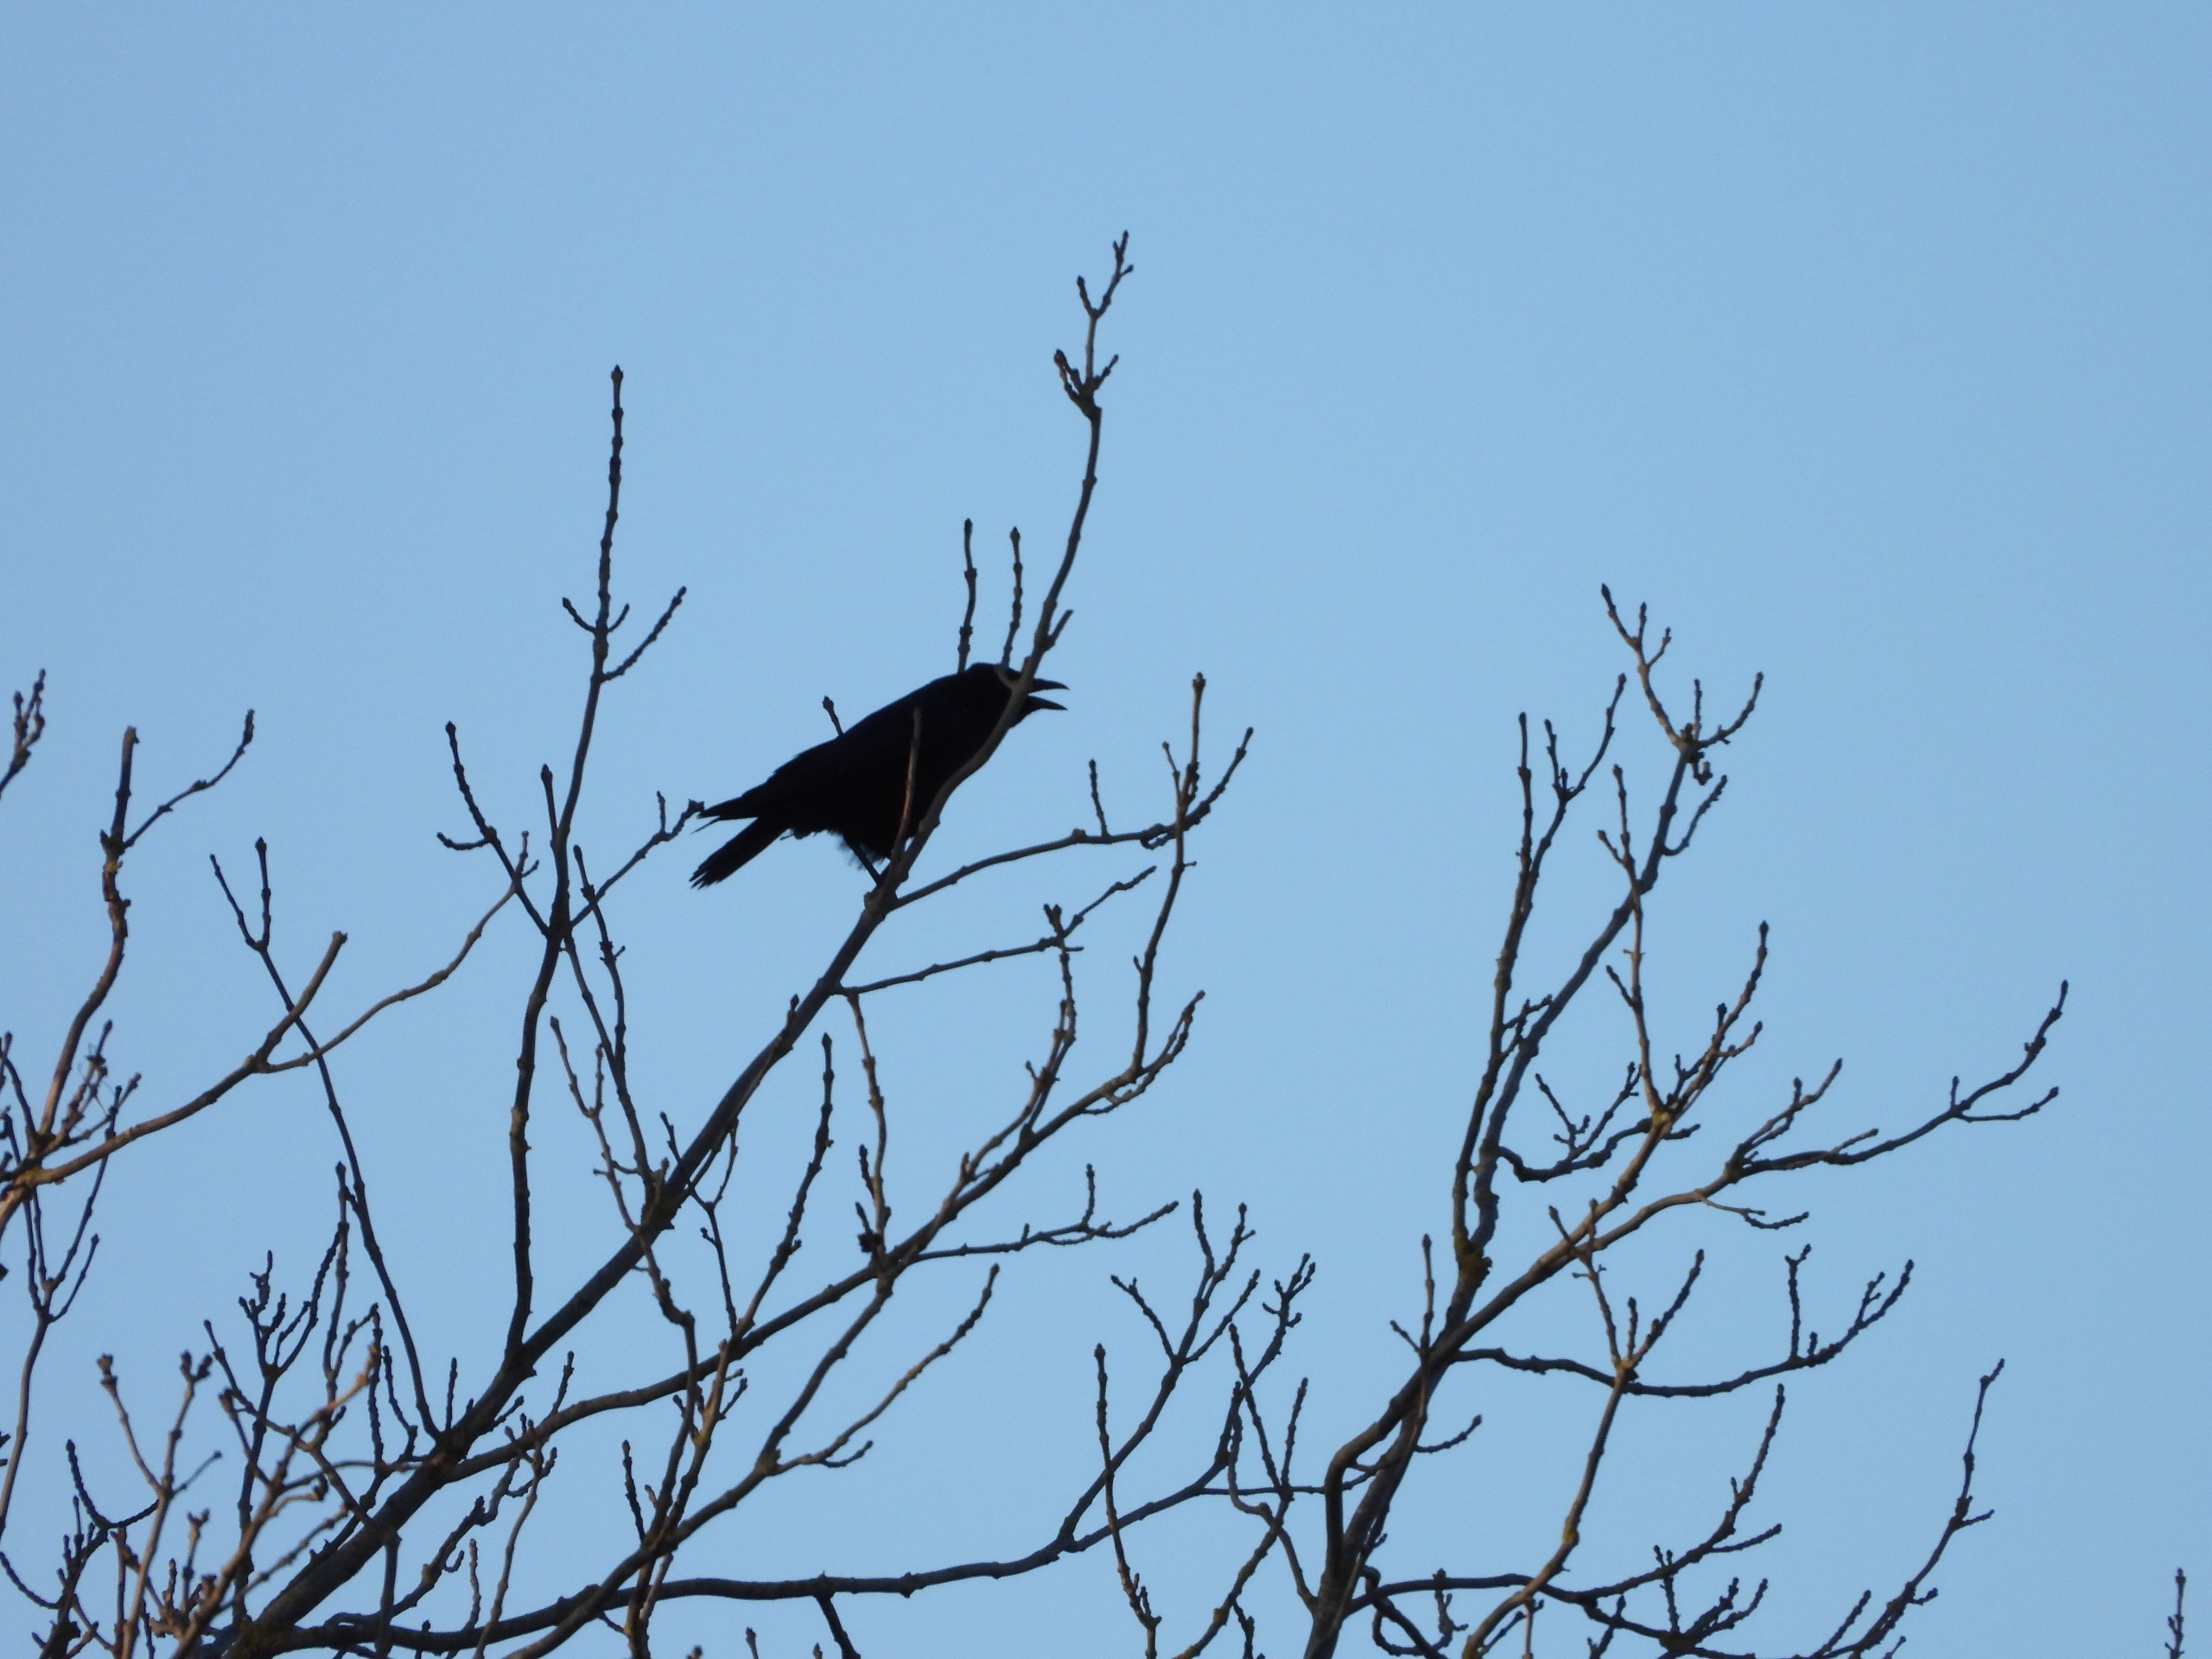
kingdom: Animalia
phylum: Chordata
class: Aves
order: Passeriformes
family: Corvidae
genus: Corvus
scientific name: Corvus corone
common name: Sortkrage
